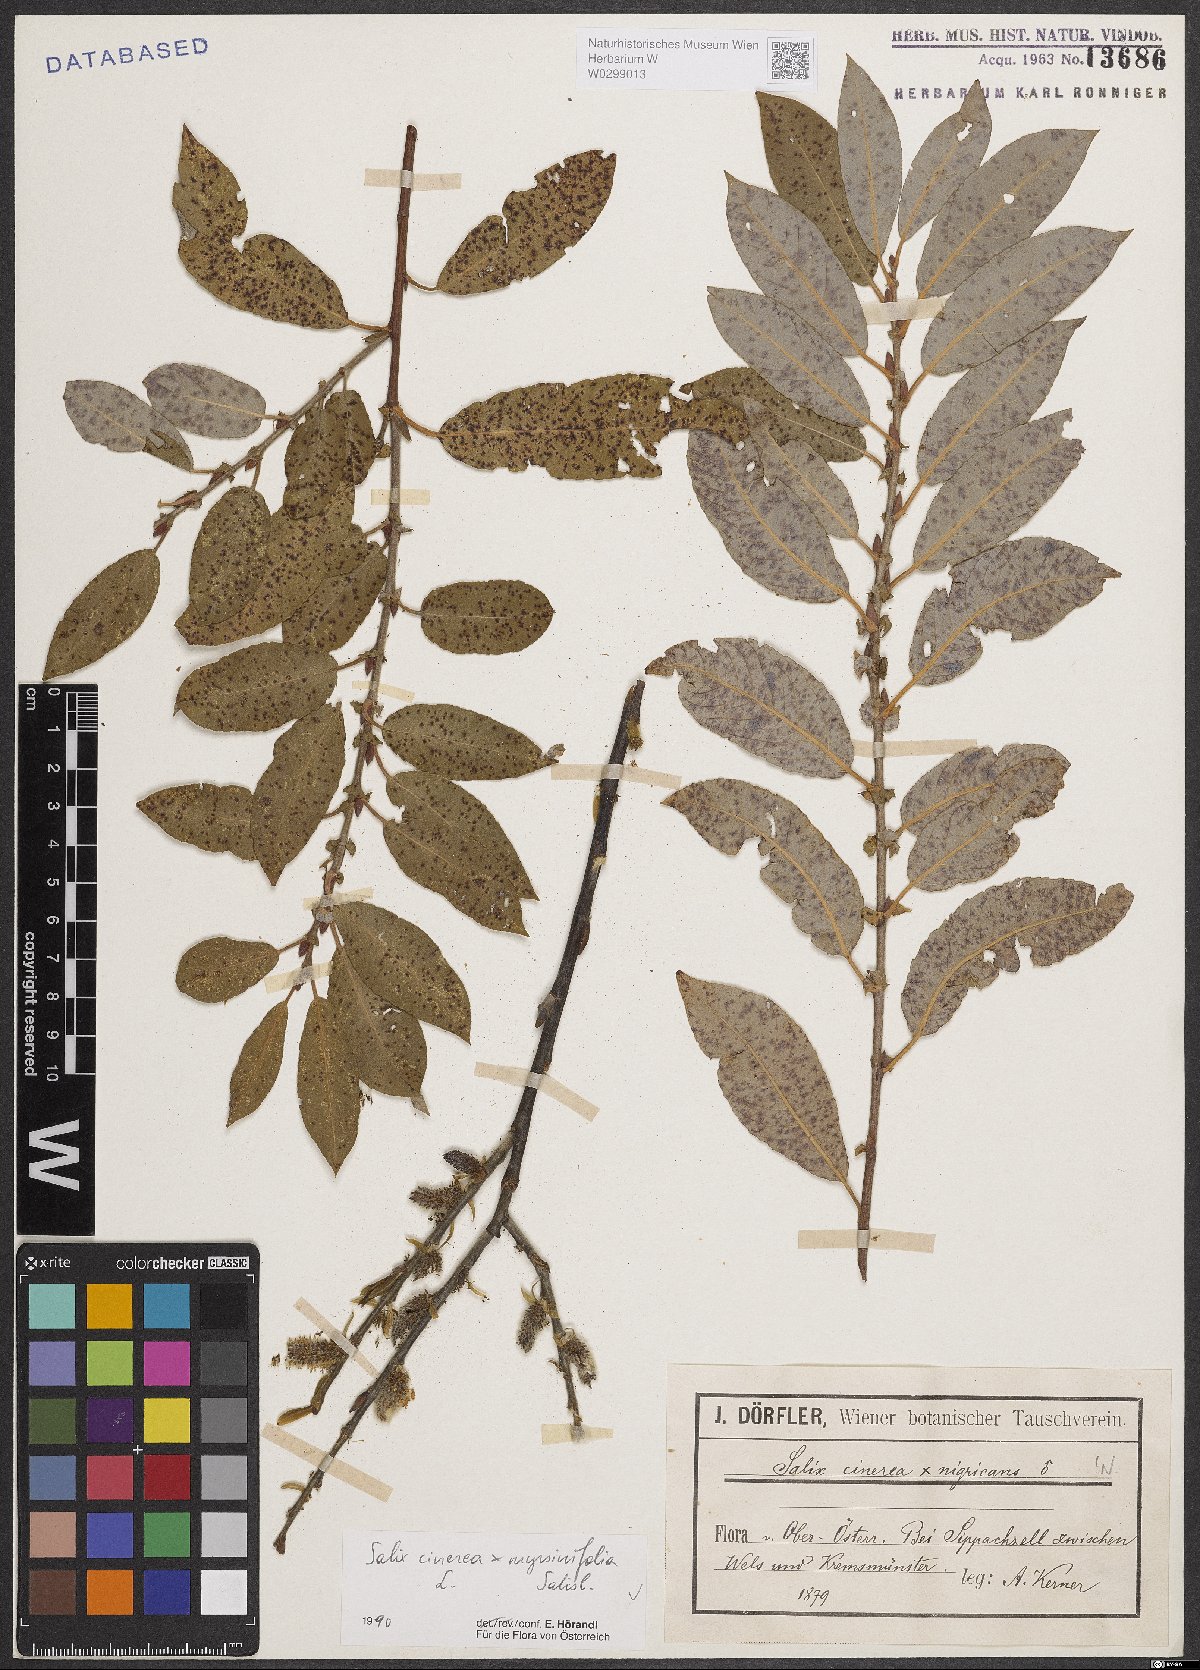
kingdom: Plantae
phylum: Tracheophyta
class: Magnoliopsida
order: Malpighiales
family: Salicaceae
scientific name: Salicaceae
